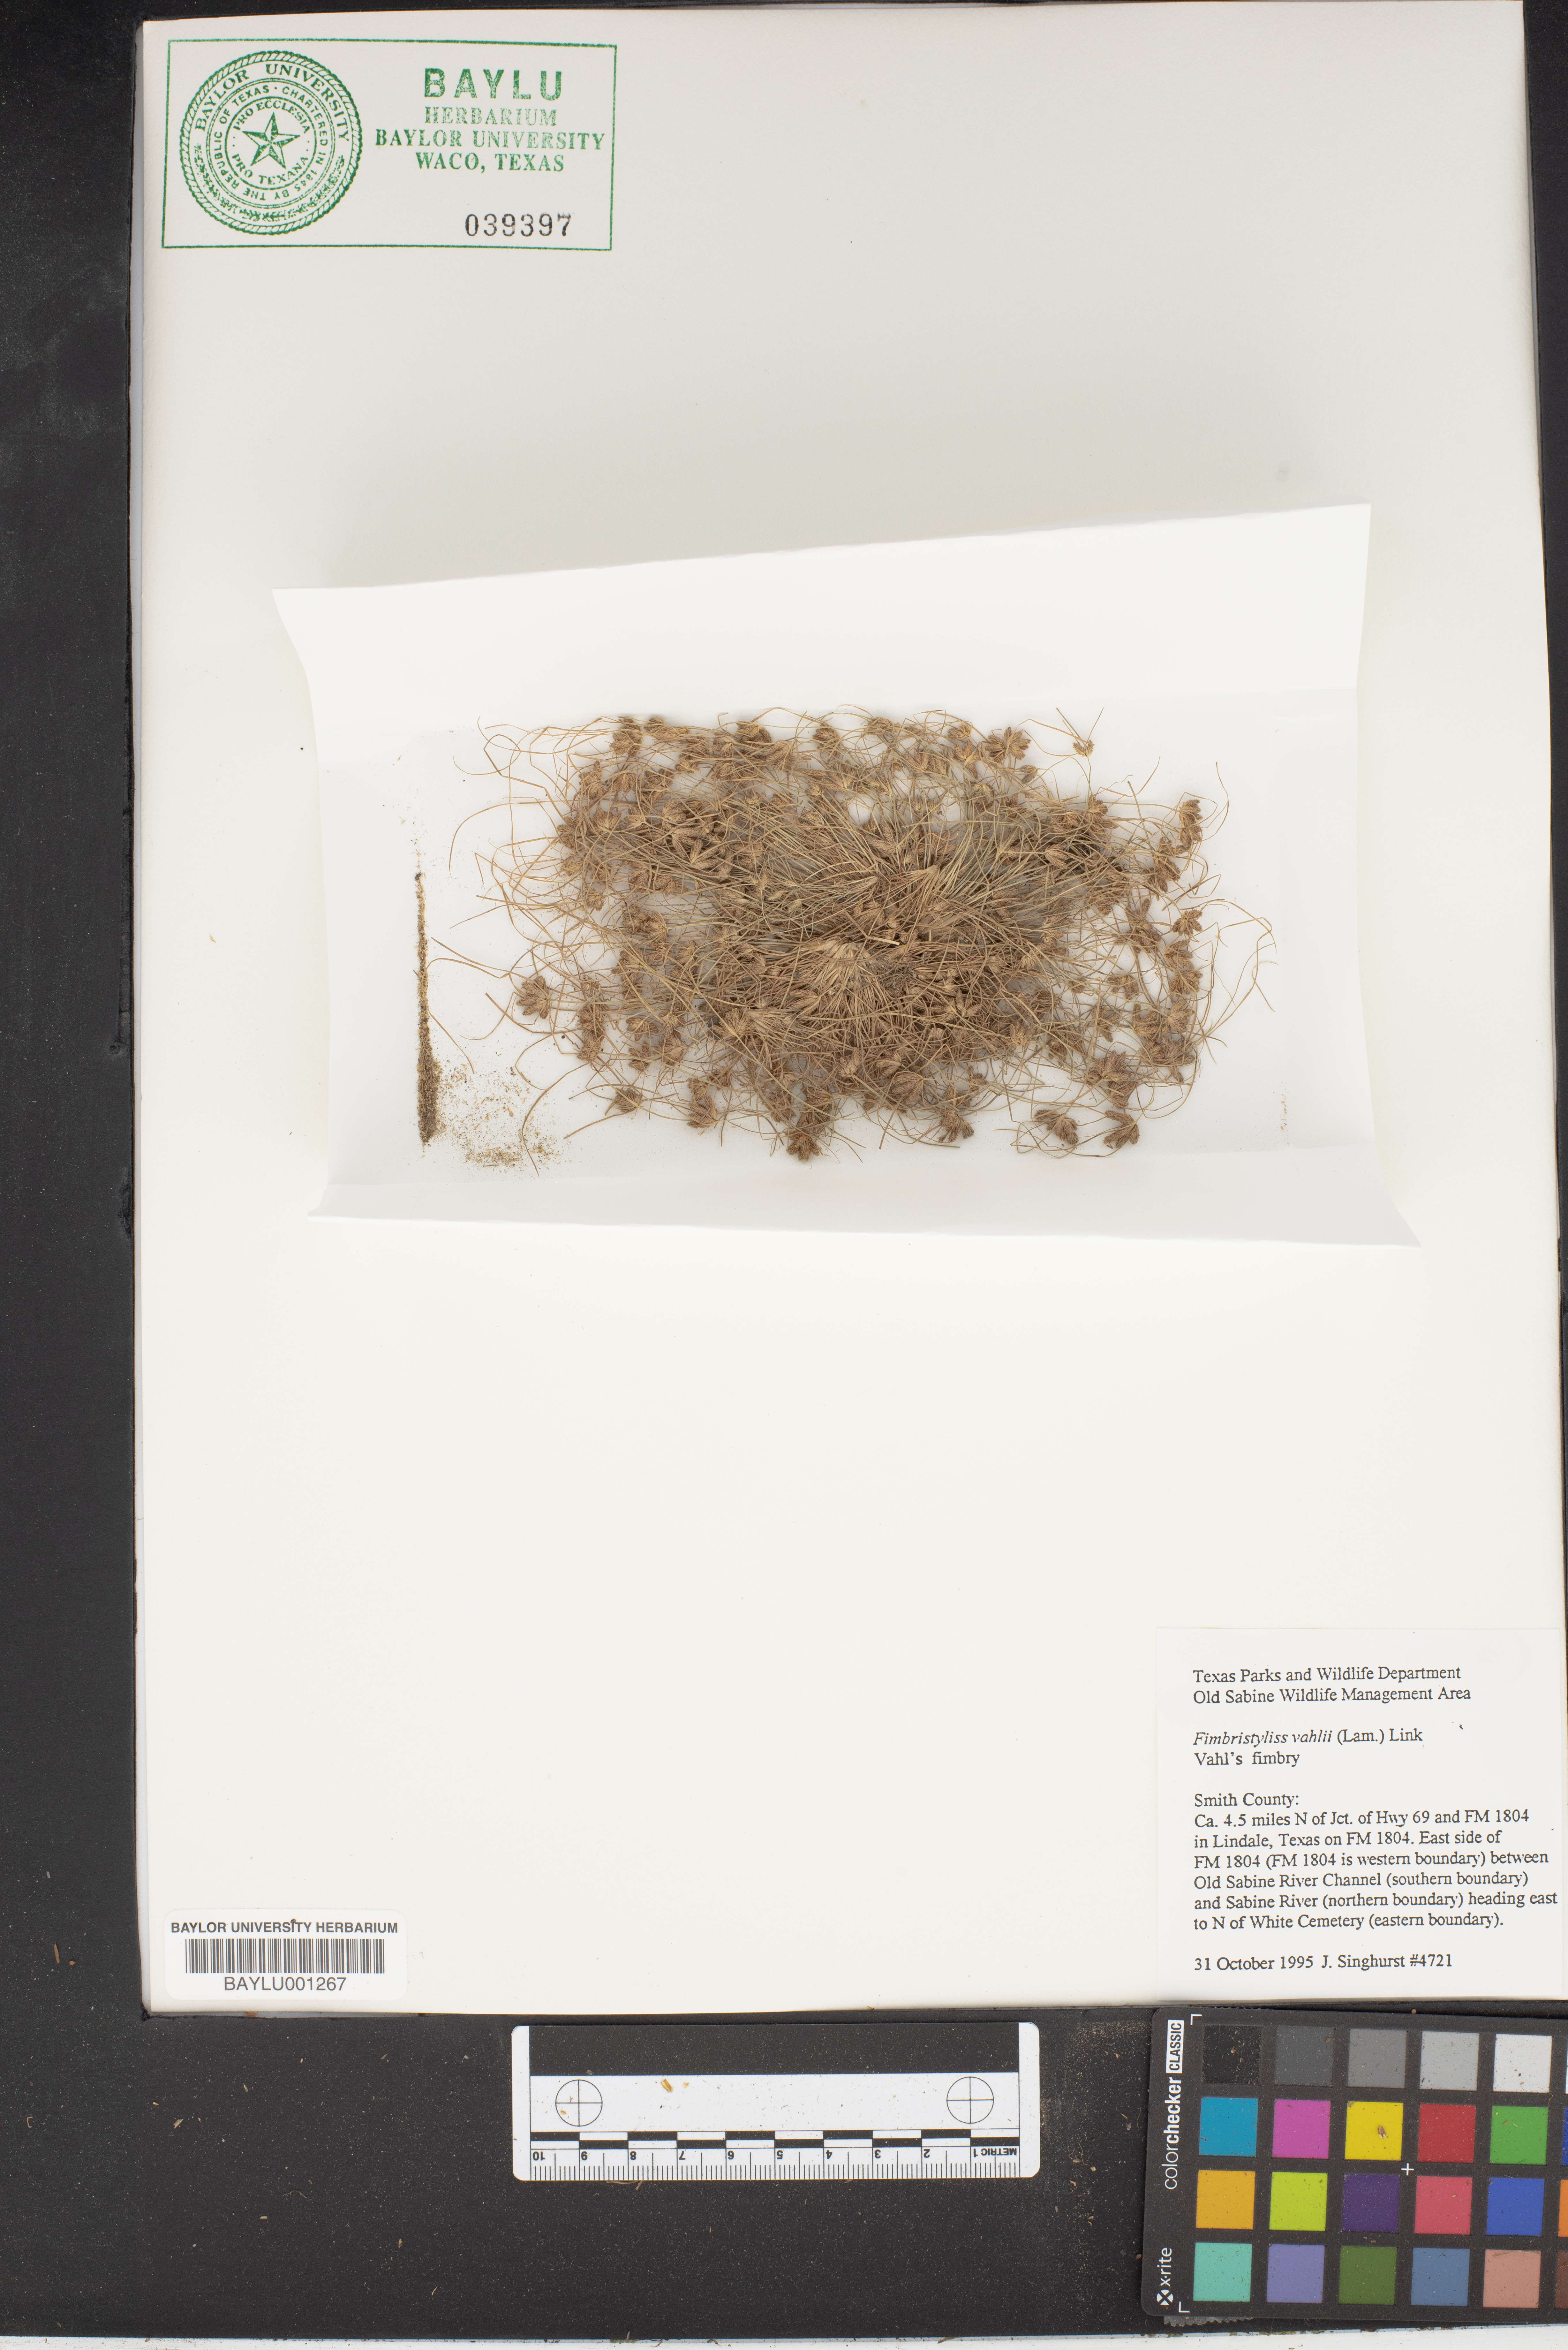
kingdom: Plantae
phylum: Tracheophyta
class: Liliopsida
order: Poales
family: Cyperaceae
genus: Fimbristylis
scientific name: Fimbristylis vahlii
